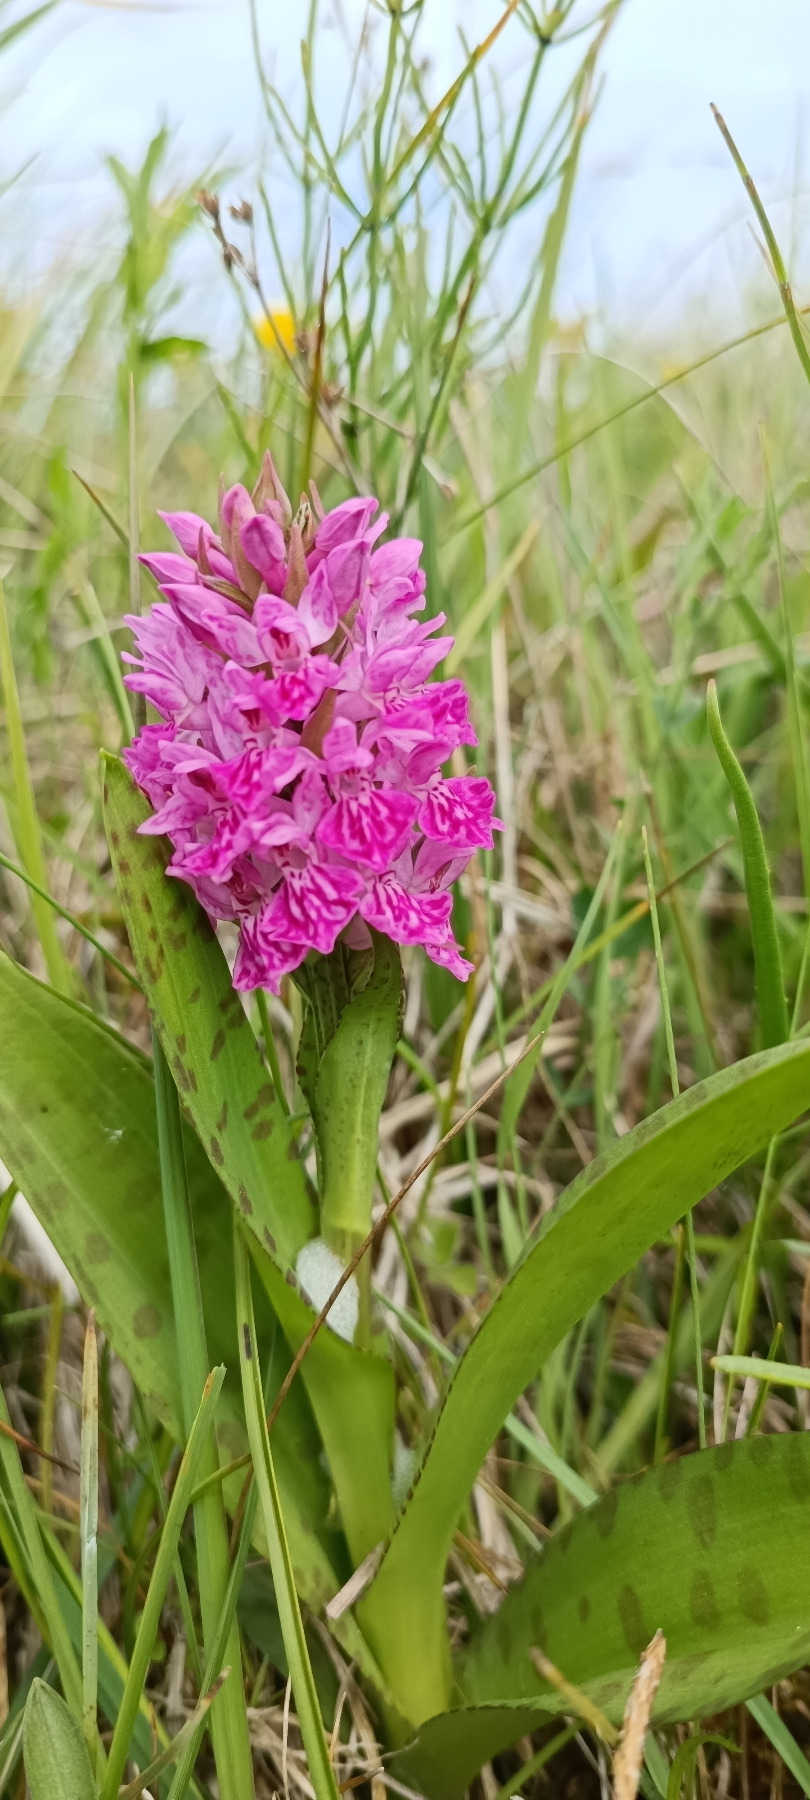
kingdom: Plantae
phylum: Tracheophyta
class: Liliopsida
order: Asparagales
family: Orchidaceae
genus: Dactylorhiza
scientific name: Dactylorhiza majalis
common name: Vendsyssel-gøgeurt
